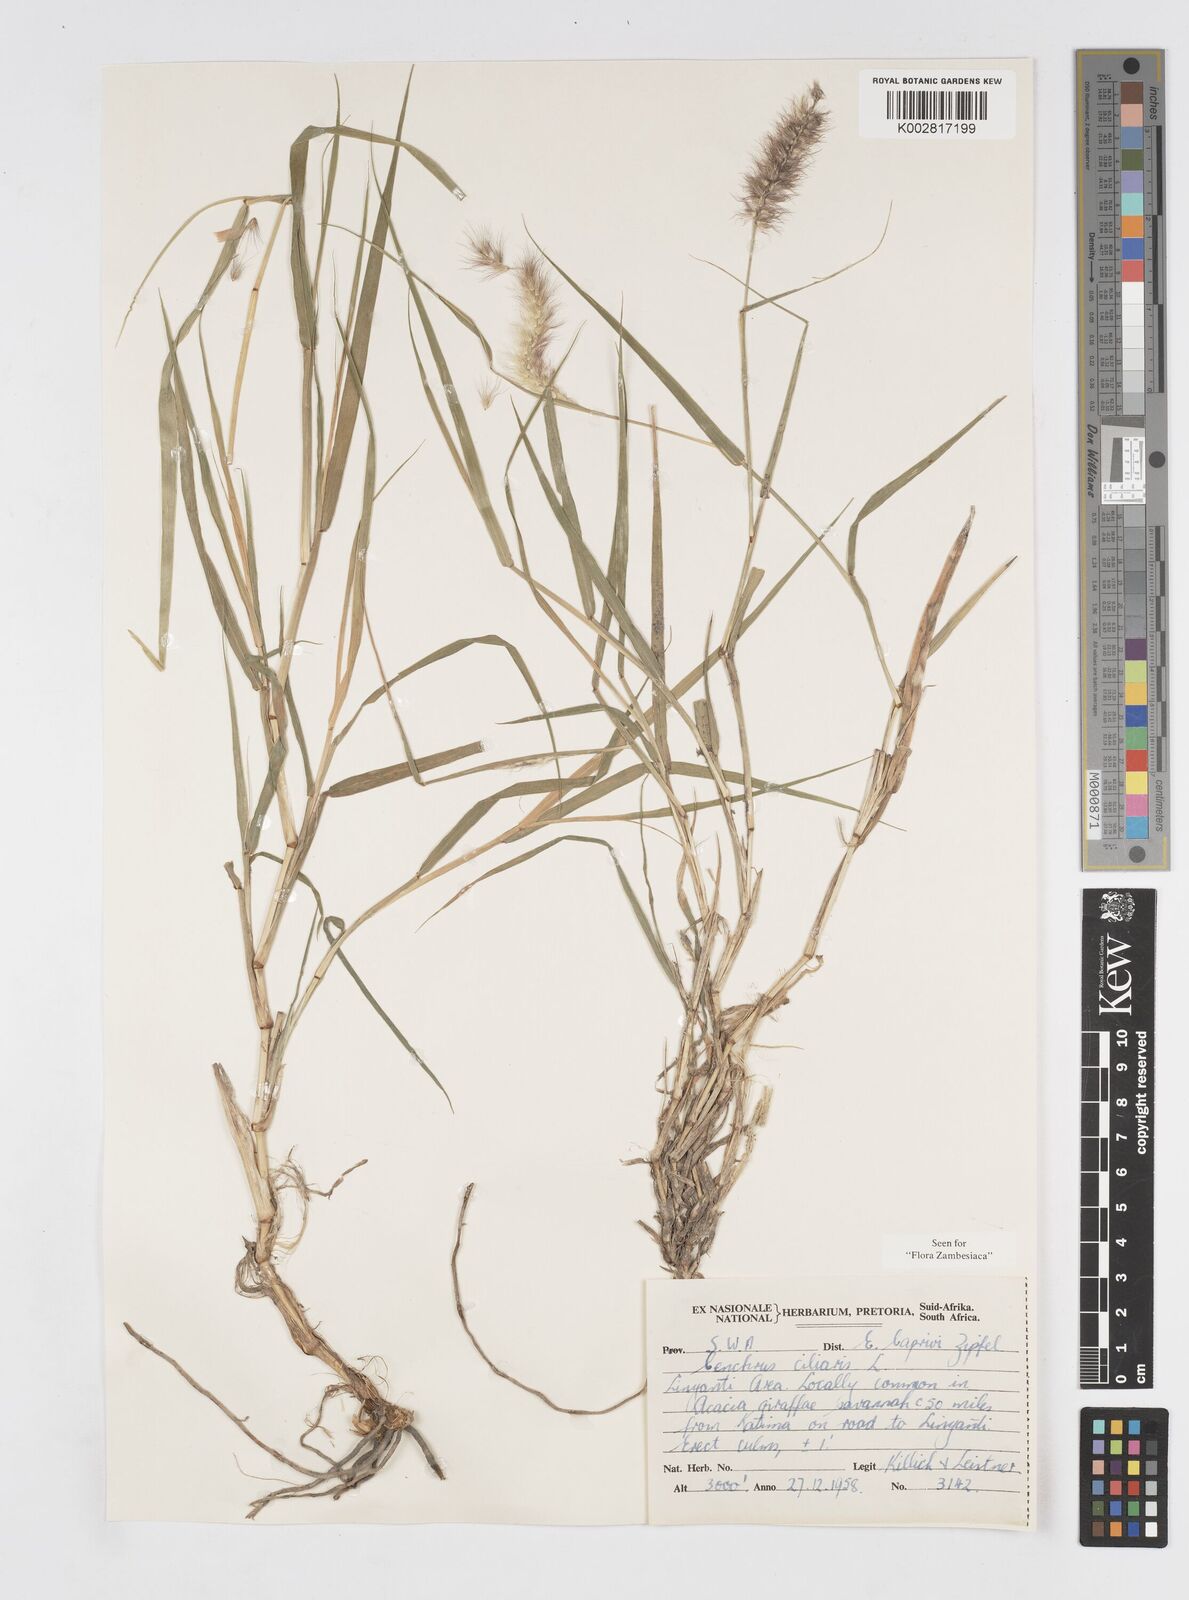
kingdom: Plantae
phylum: Tracheophyta
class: Liliopsida
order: Poales
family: Poaceae
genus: Cenchrus
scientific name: Cenchrus ciliaris
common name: Buffelgrass
